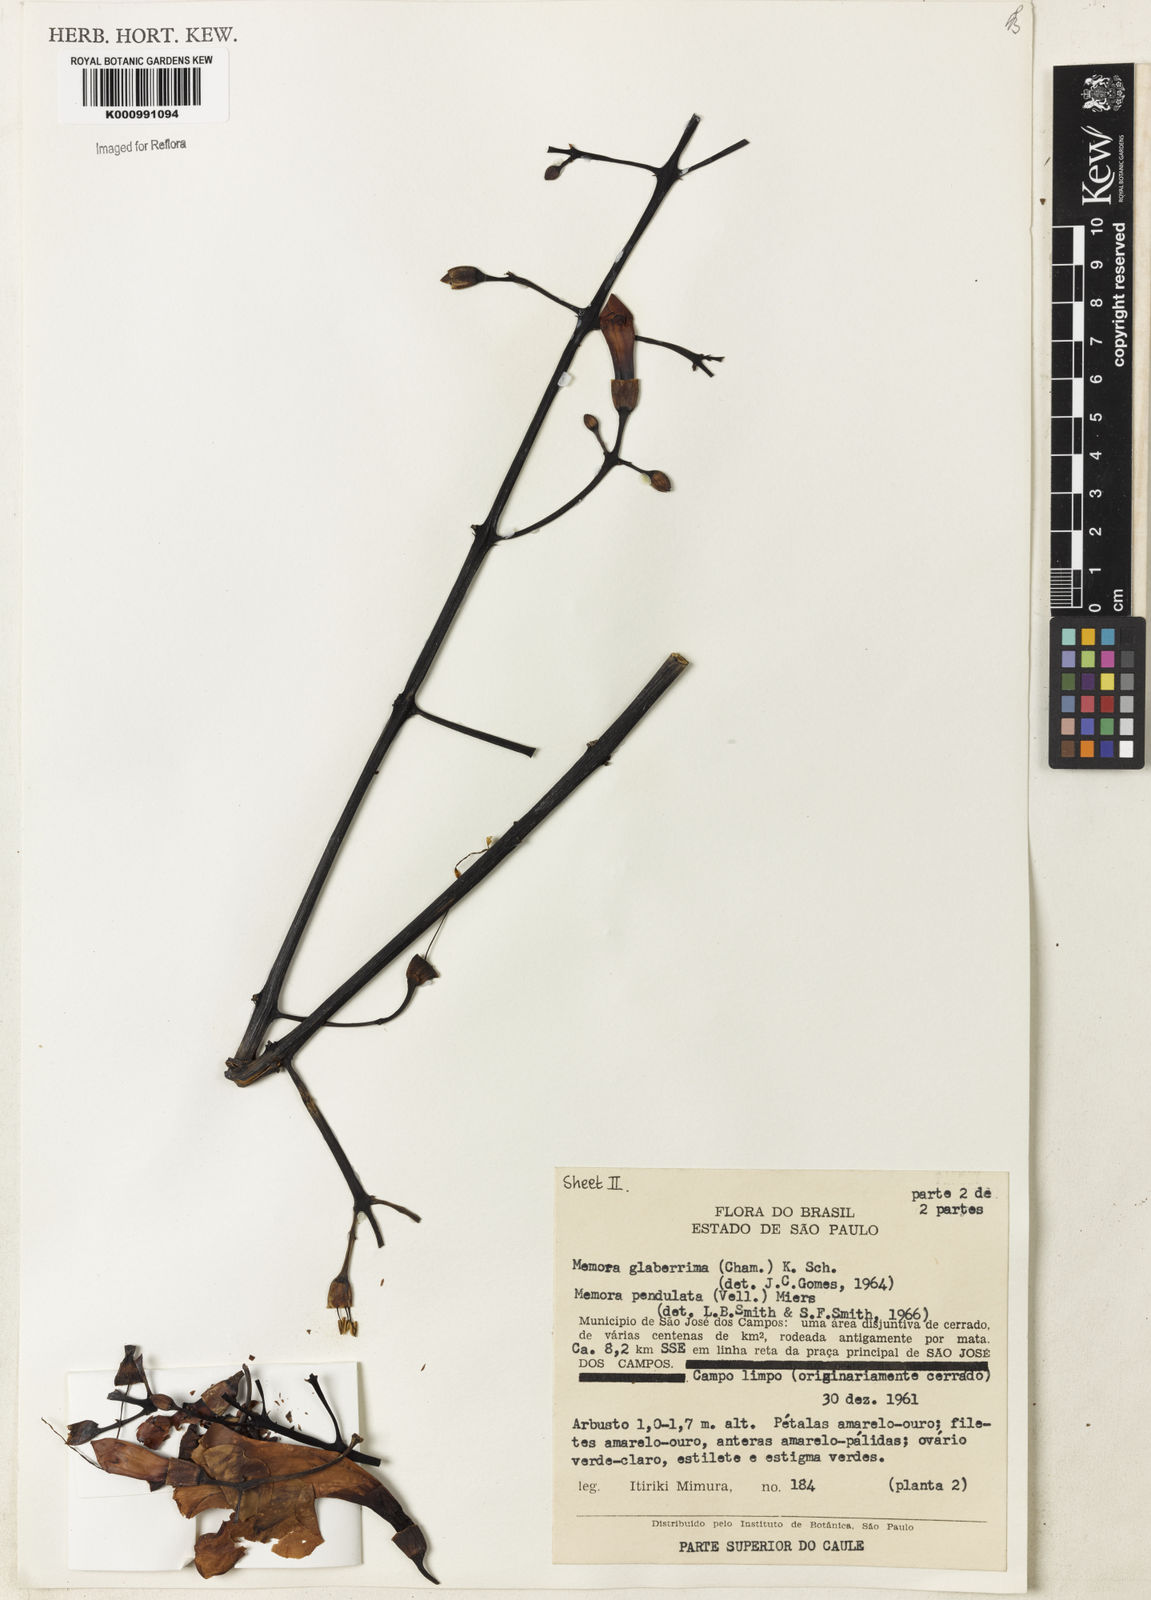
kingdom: Plantae
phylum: Tracheophyta
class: Magnoliopsida
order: Lamiales
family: Bignoniaceae
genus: Adenocalymma
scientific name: Adenocalymma
